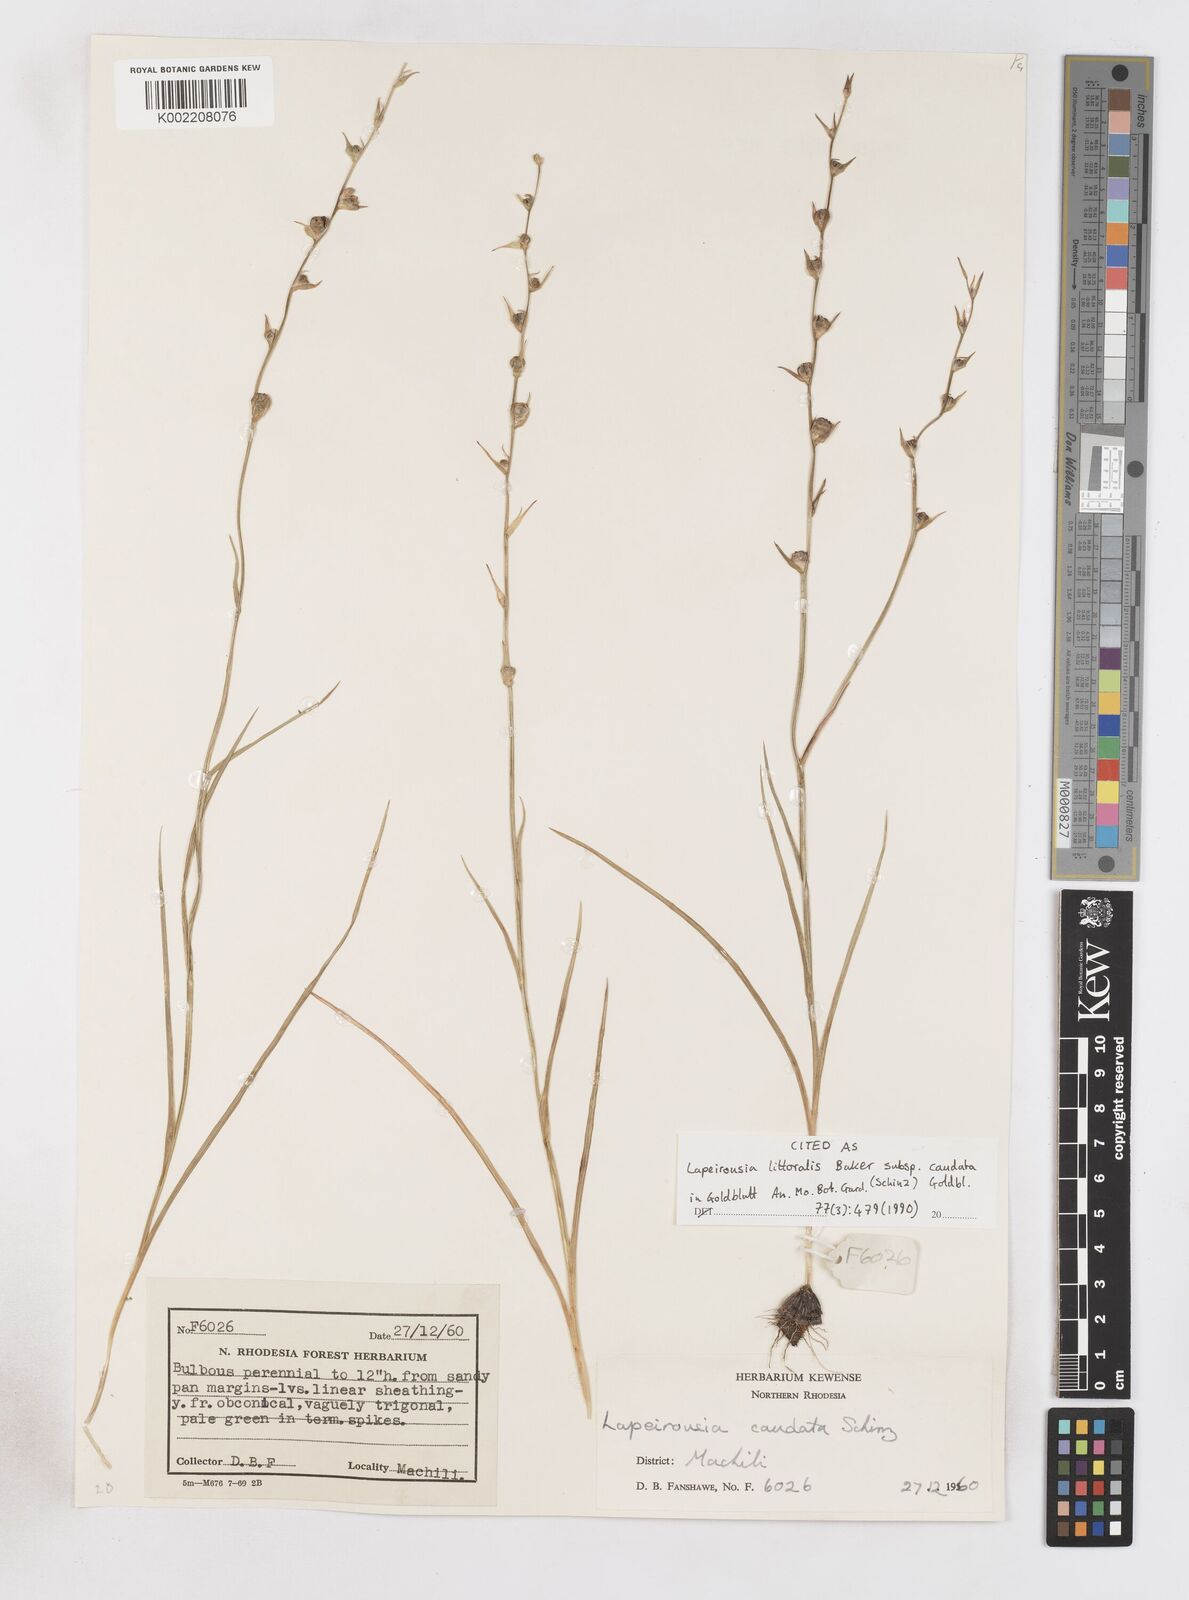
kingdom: Plantae
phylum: Tracheophyta
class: Liliopsida
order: Asparagales
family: Iridaceae
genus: Lapeirousia
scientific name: Lapeirousia caudata
